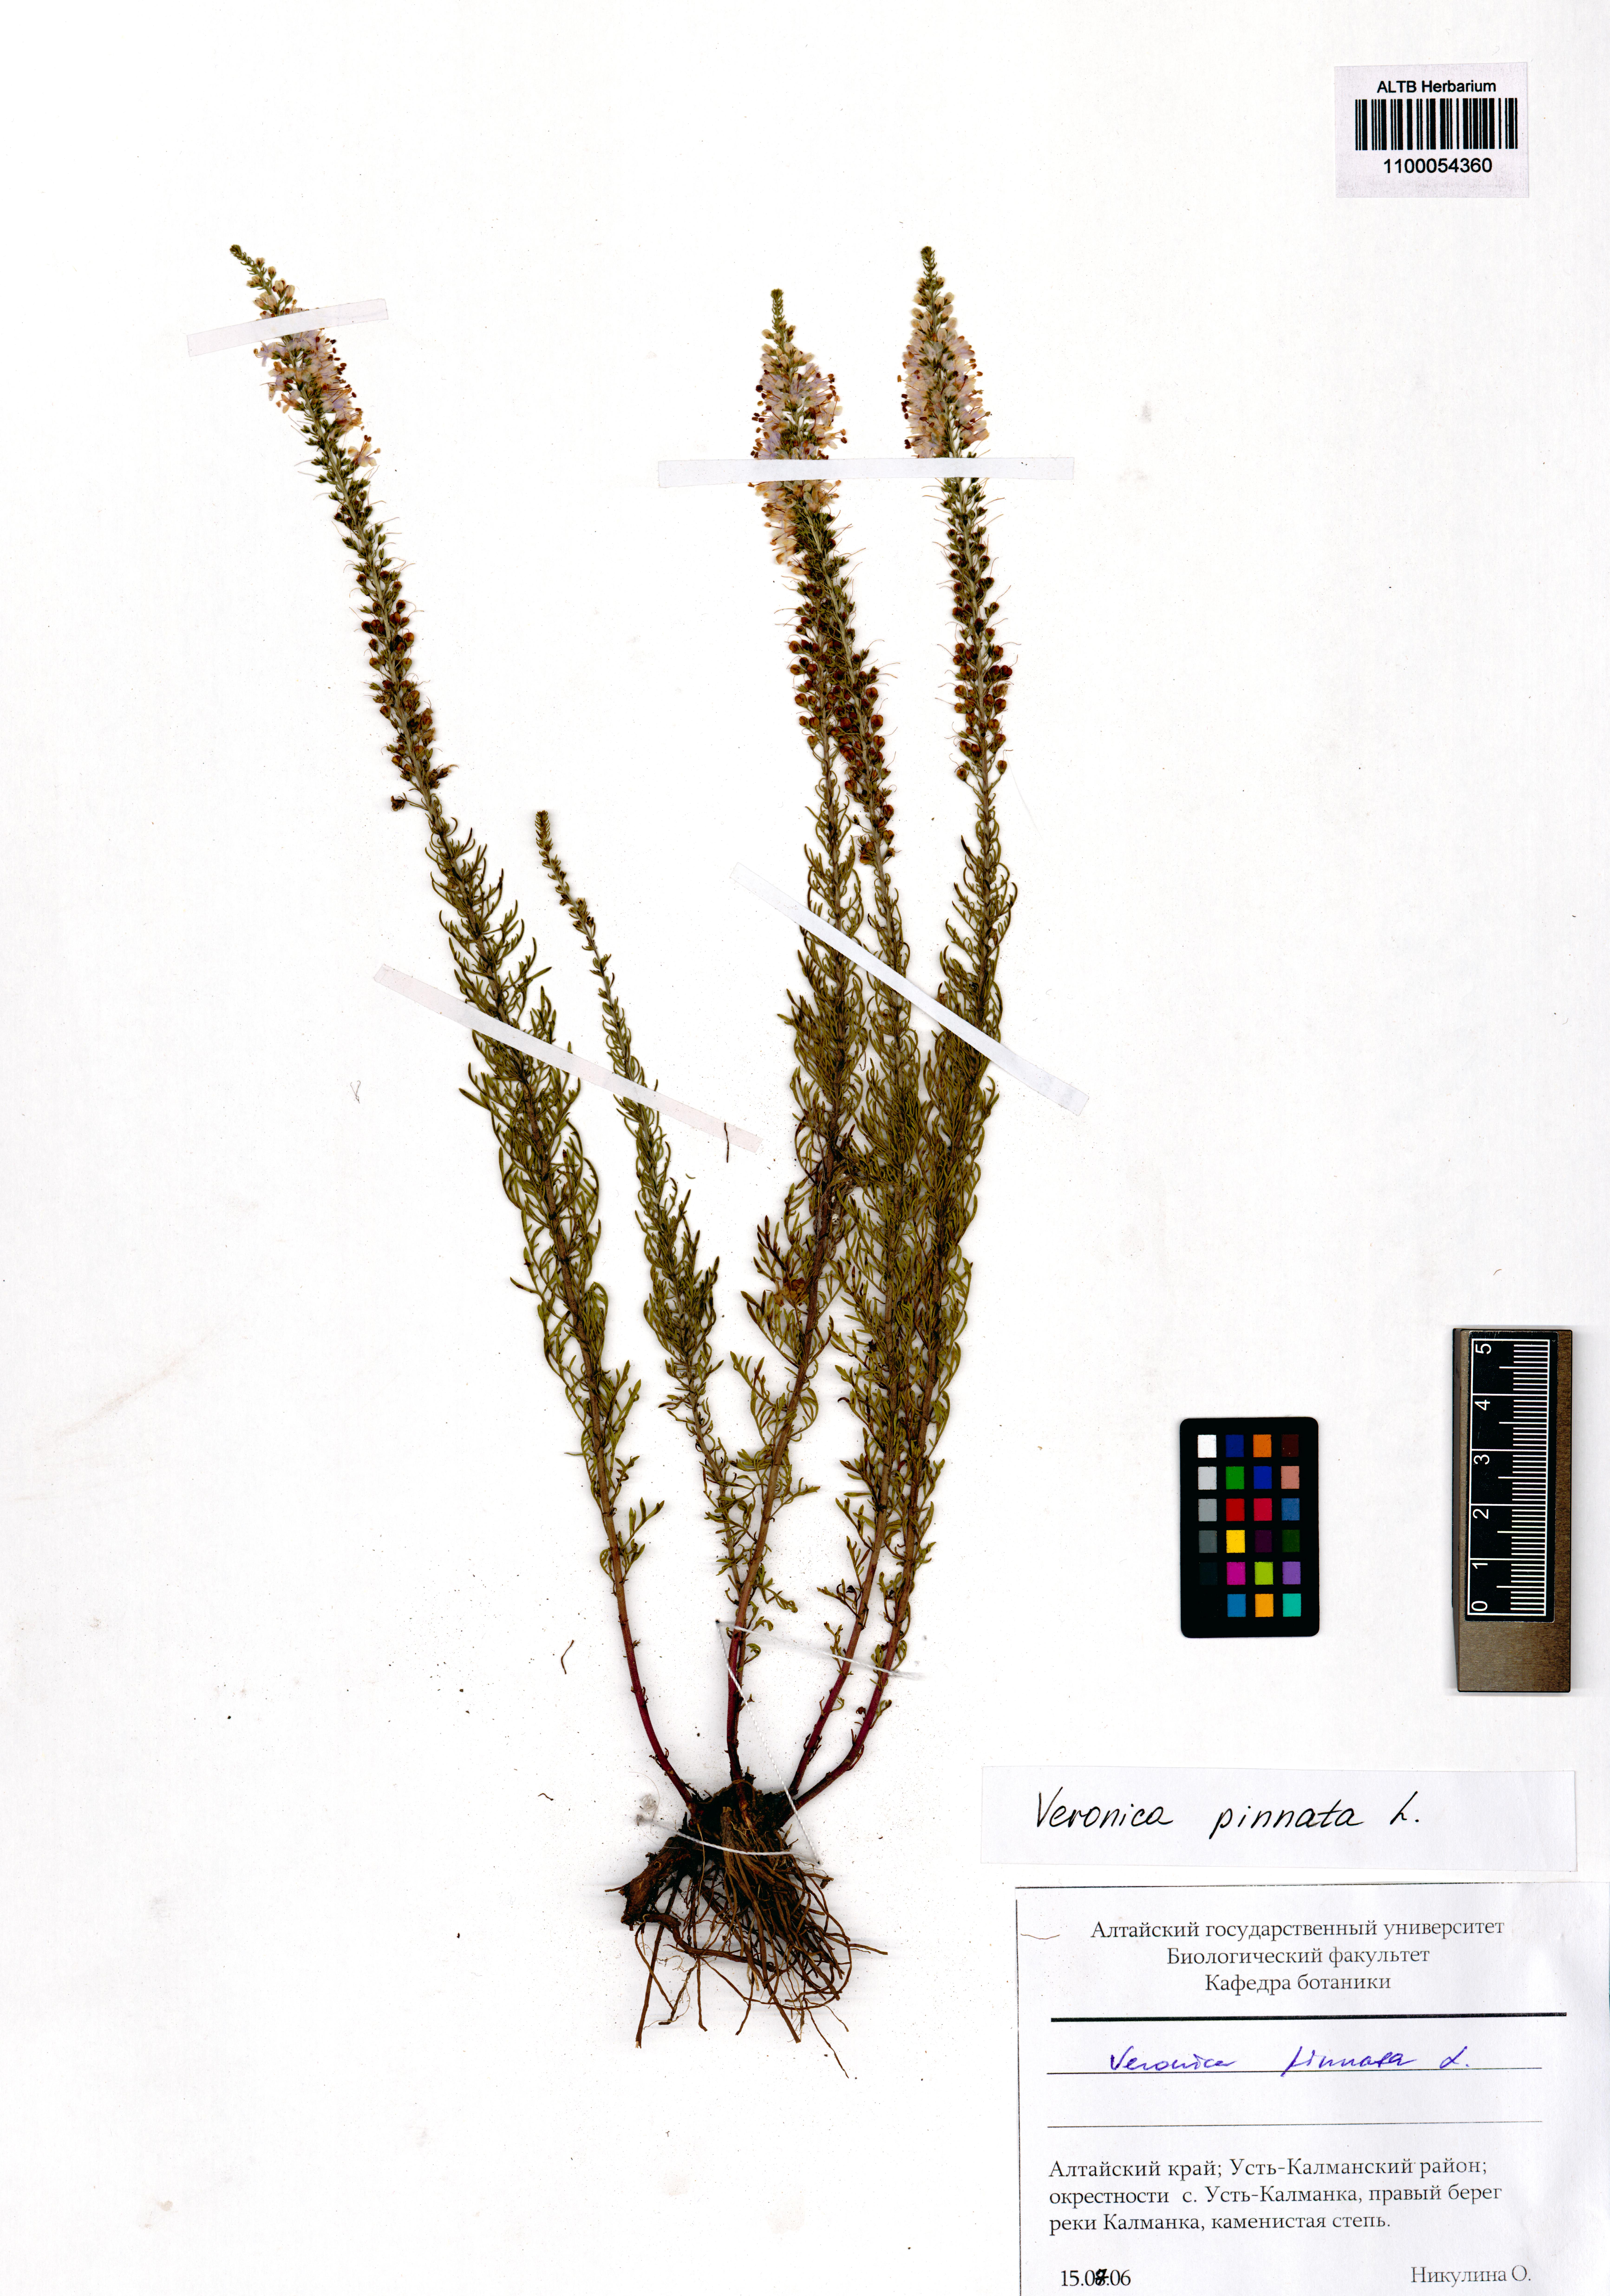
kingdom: Plantae
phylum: Tracheophyta
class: Magnoliopsida
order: Lamiales
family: Plantaginaceae
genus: Veronica
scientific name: Veronica pinnata
